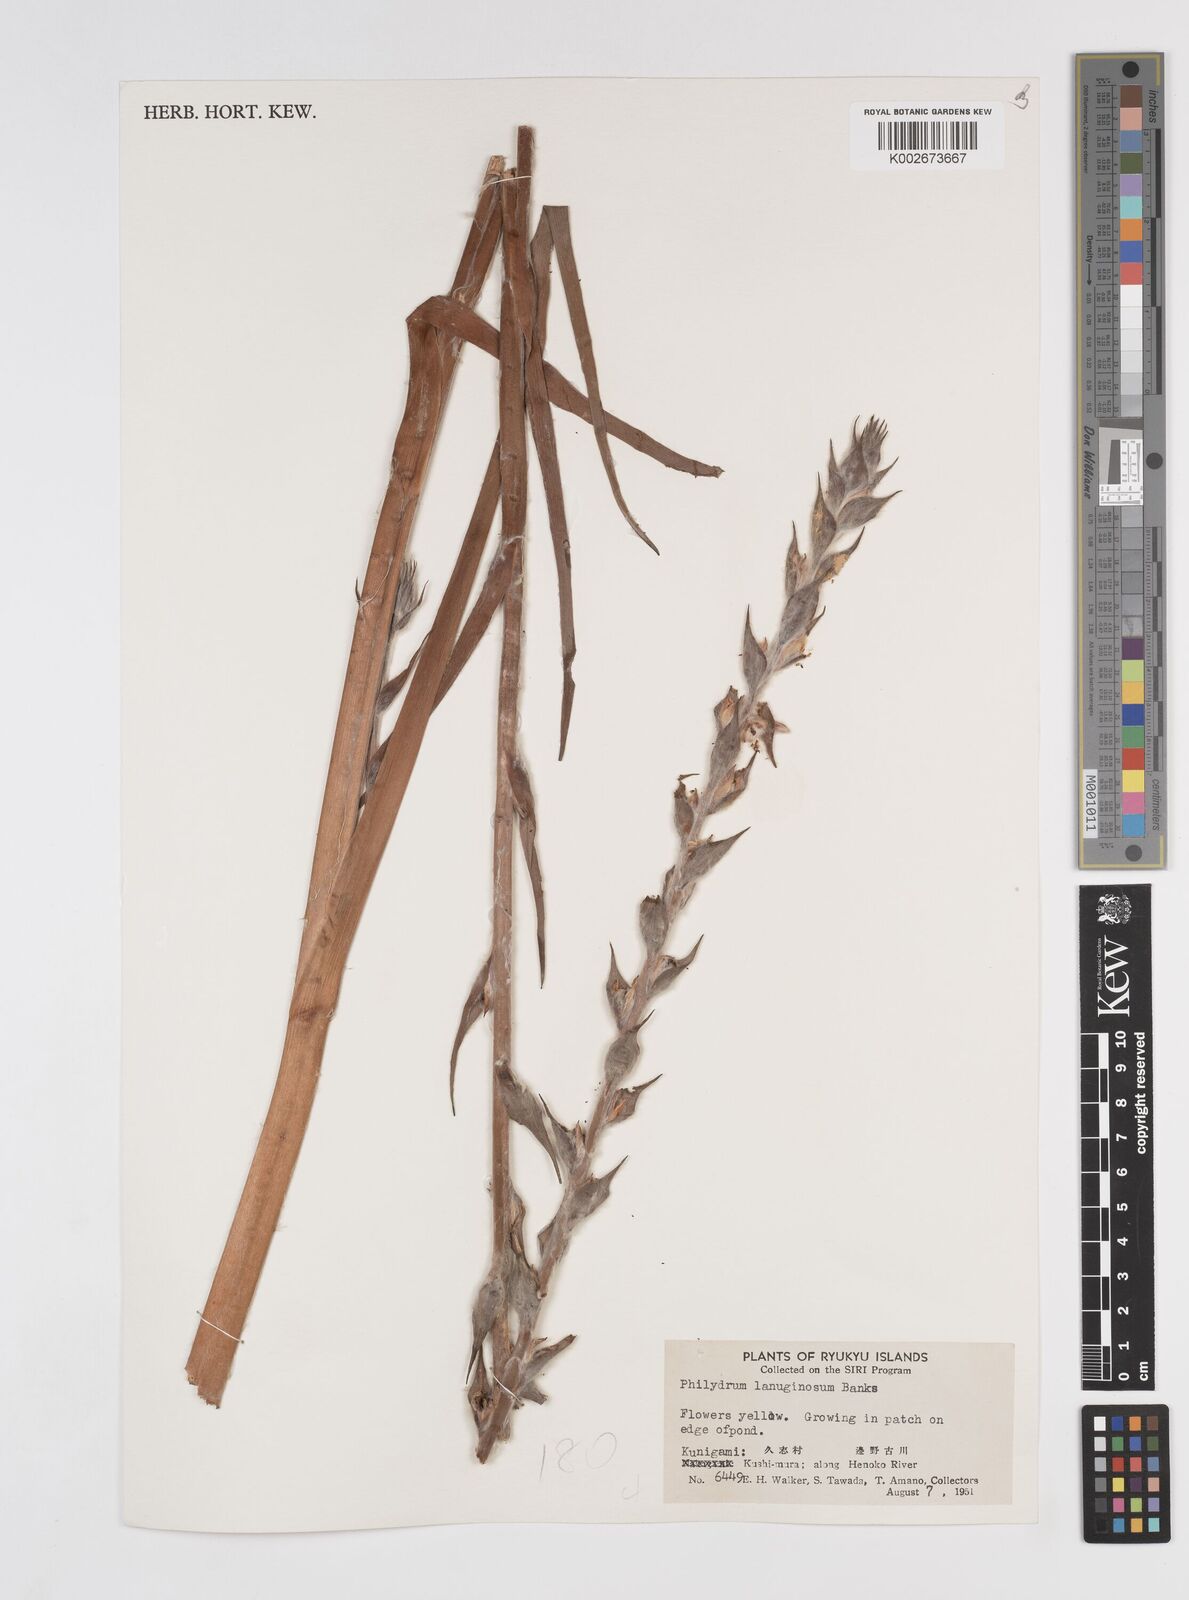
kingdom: Plantae
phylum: Tracheophyta
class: Liliopsida
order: Commelinales
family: Philydraceae
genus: Philydrum
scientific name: Philydrum lanuginosum
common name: Woolly frog's mouth
